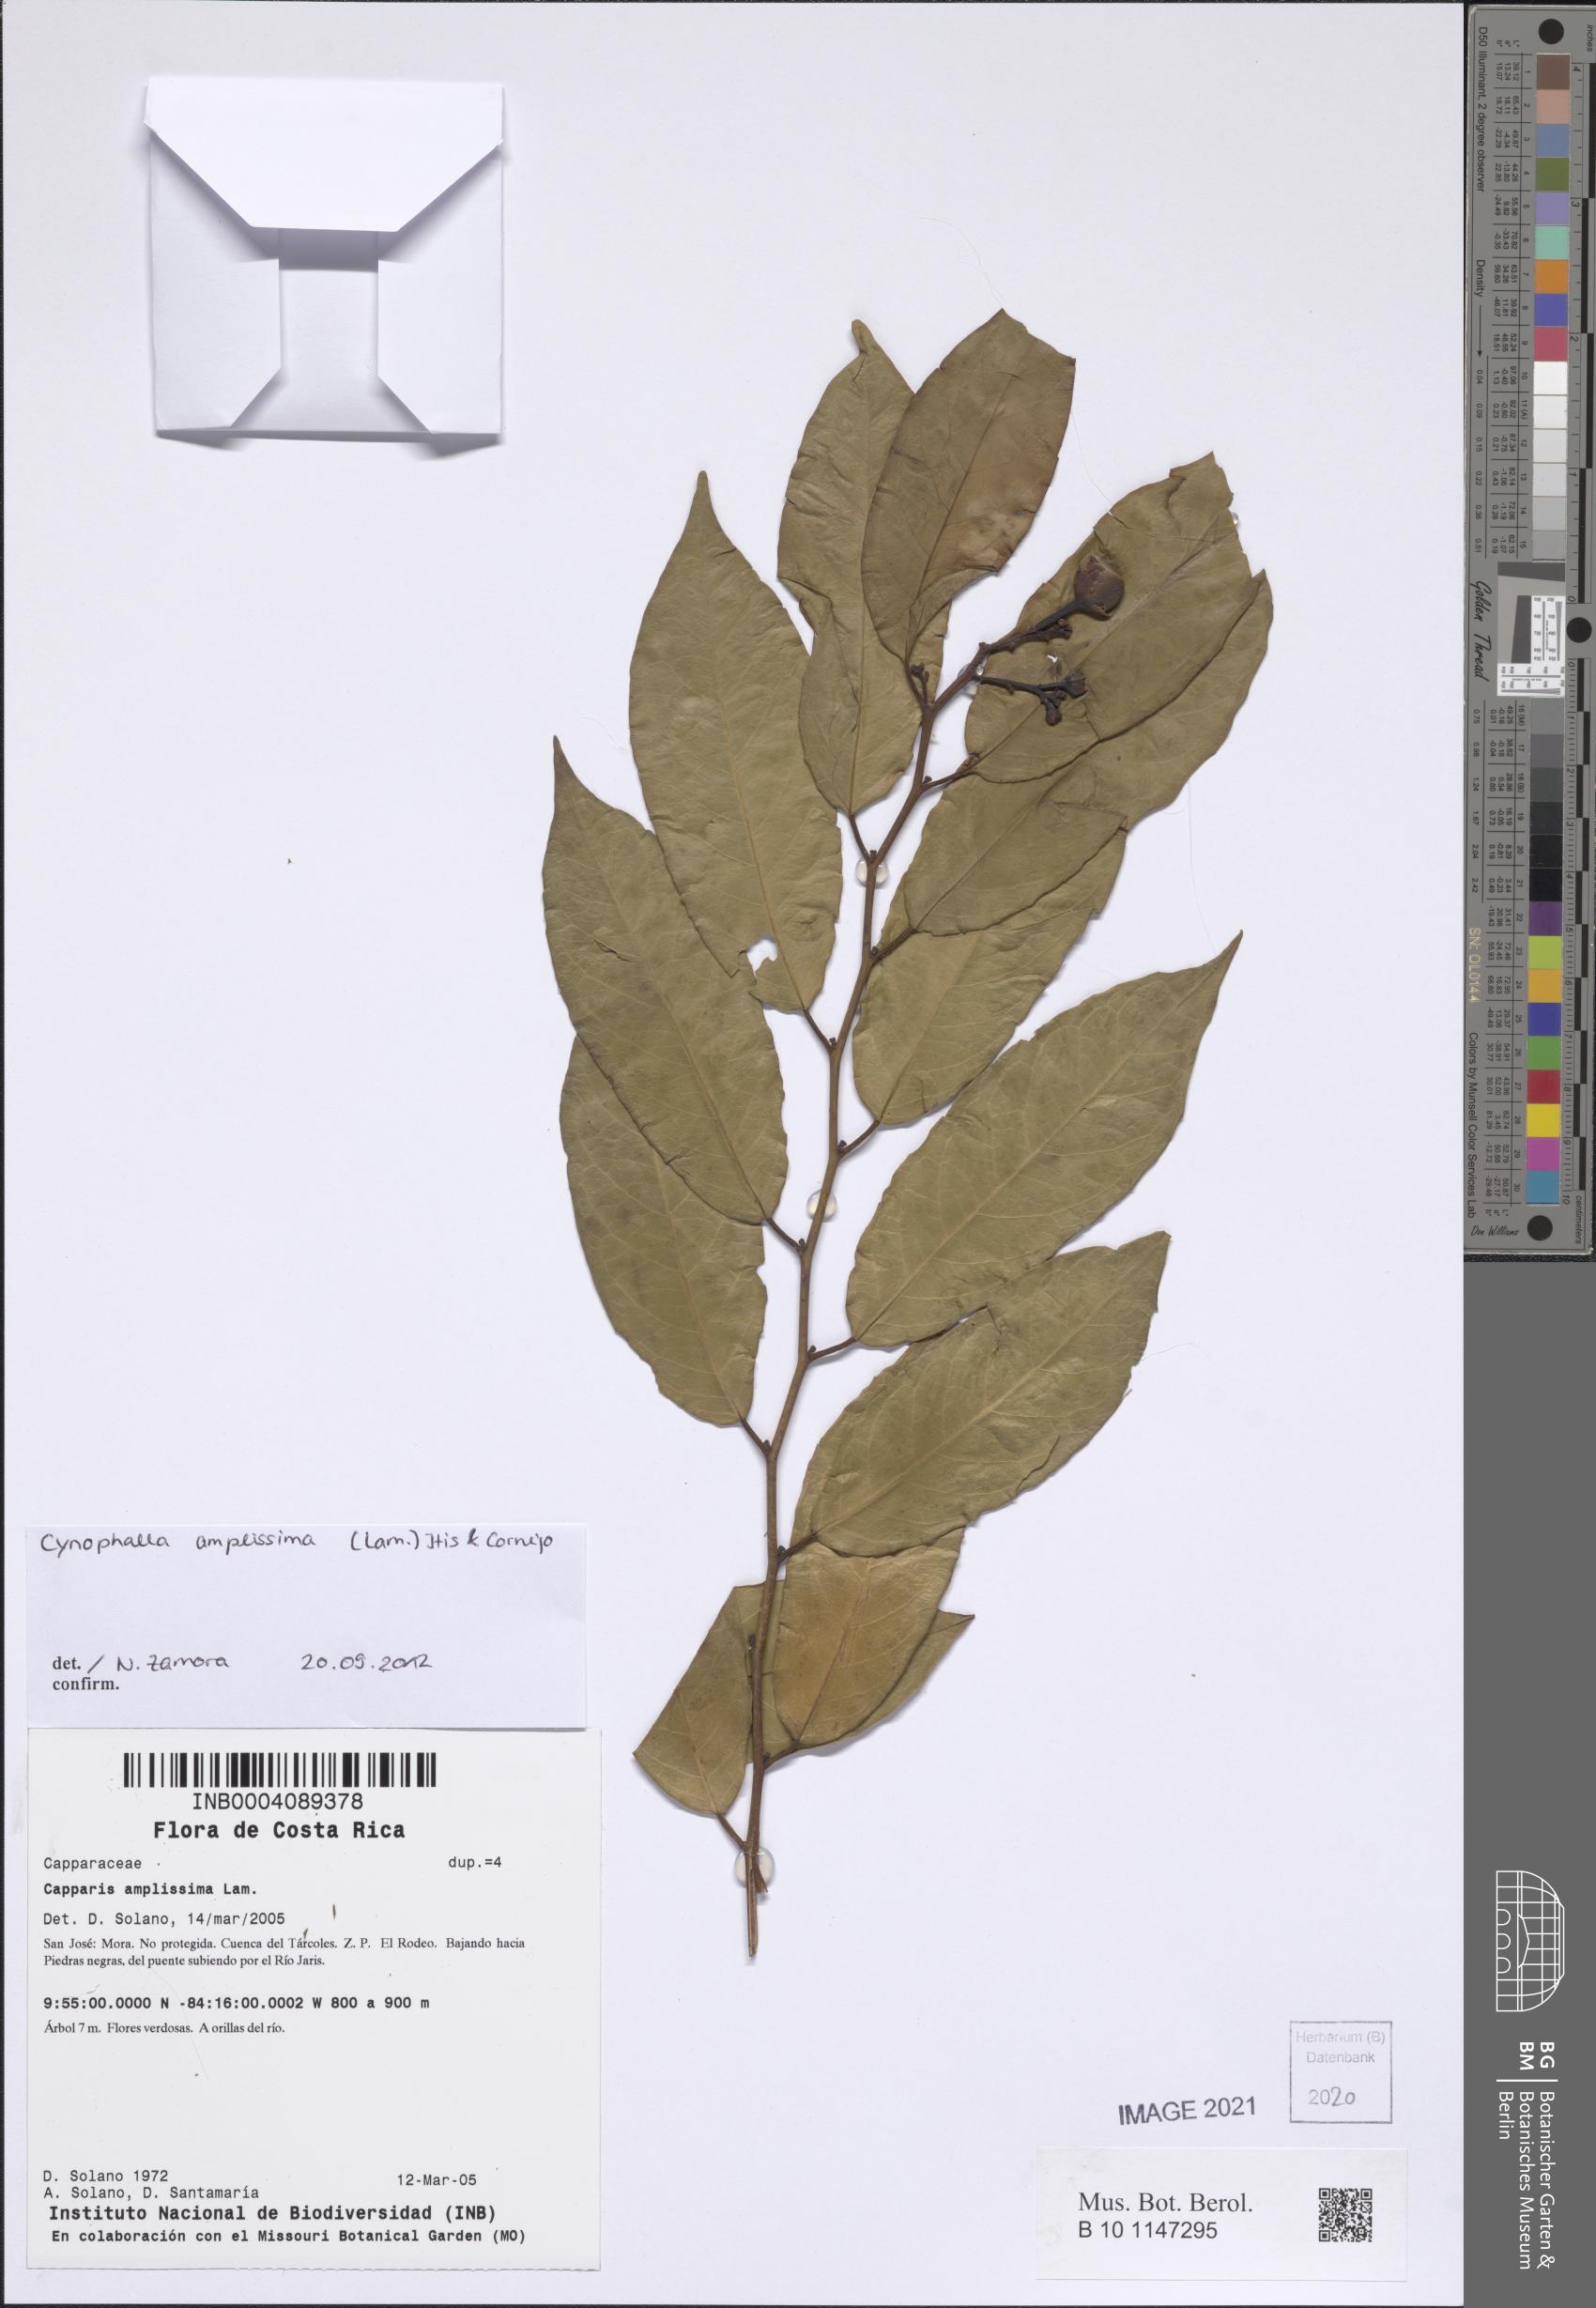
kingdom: Plantae
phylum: Tracheophyta
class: Magnoliopsida
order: Brassicales
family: Capparaceae
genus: Cynophalla
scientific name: Cynophalla amplissima
